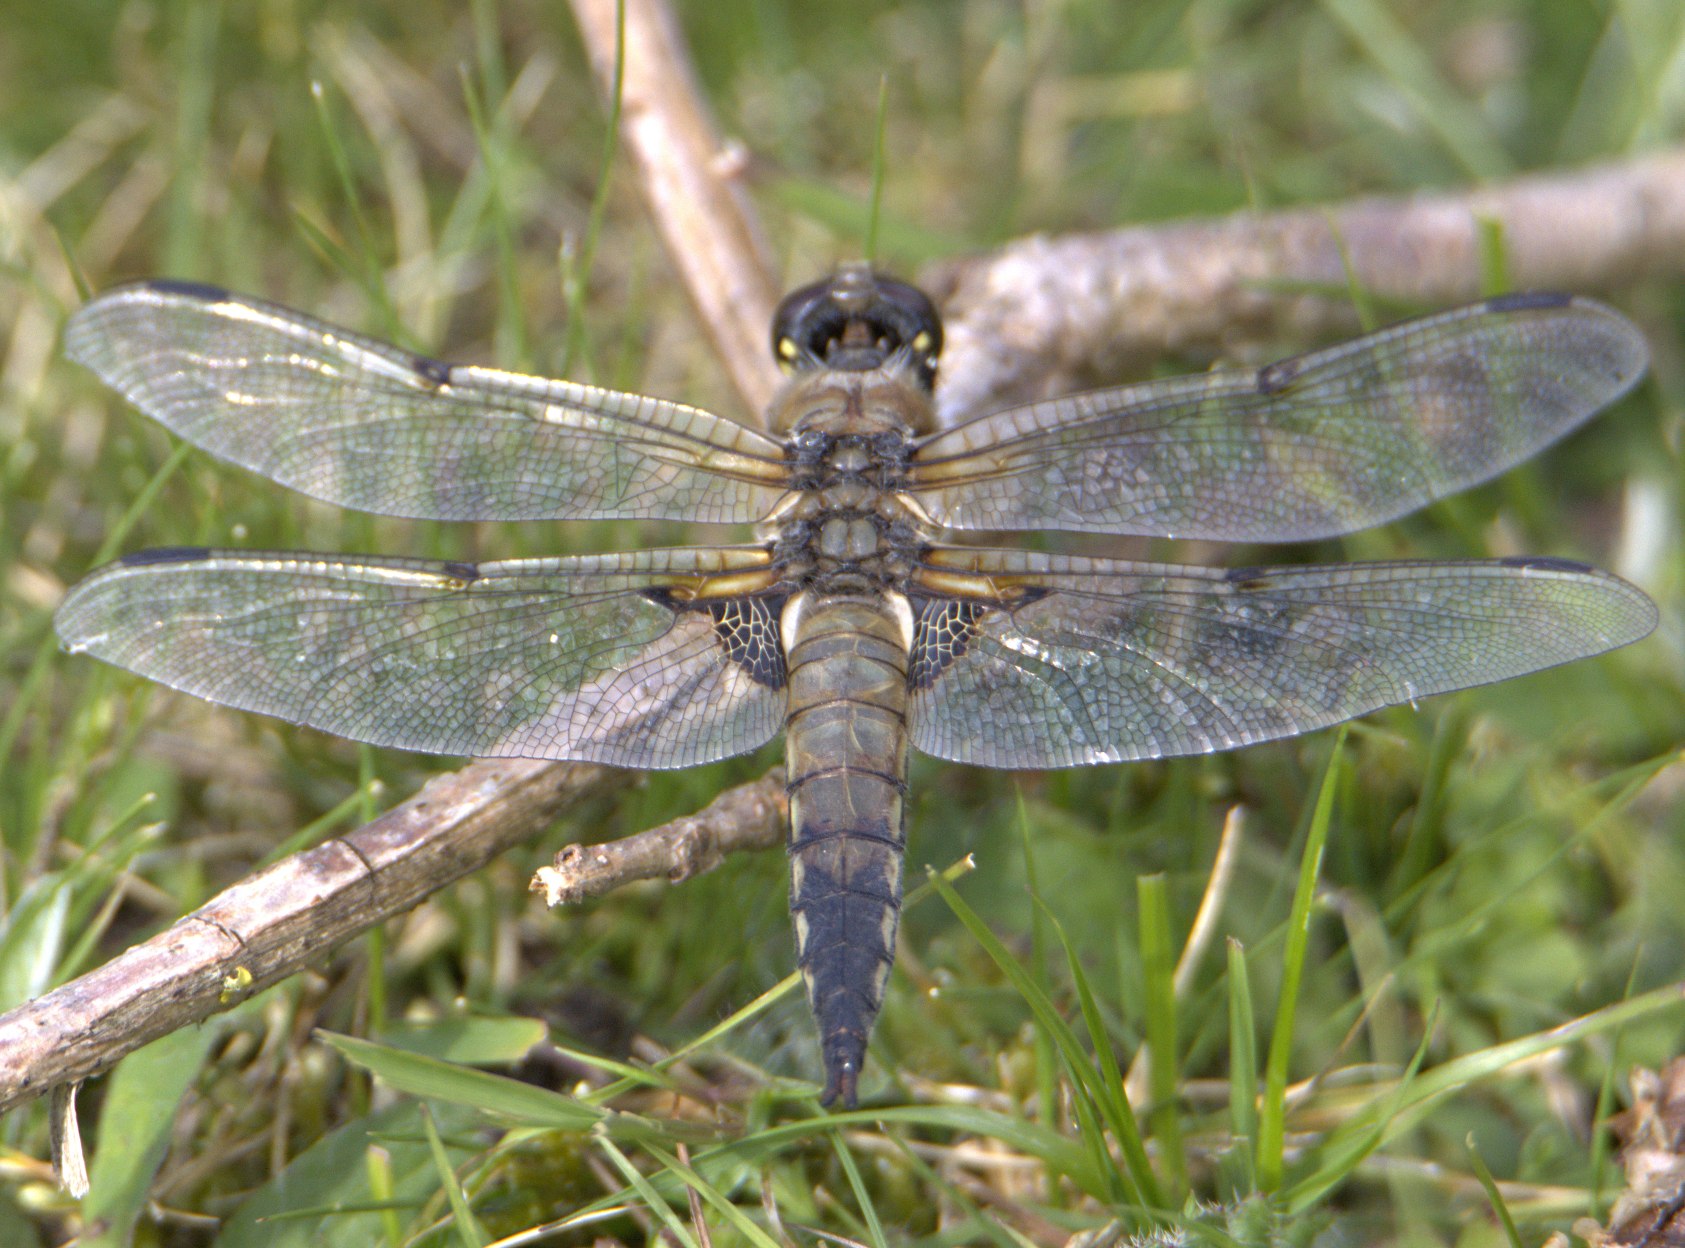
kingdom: Animalia
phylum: Arthropoda
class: Insecta
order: Odonata
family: Libellulidae
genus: Libellula
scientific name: Libellula quadrimaculata
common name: Fireplettet libel
